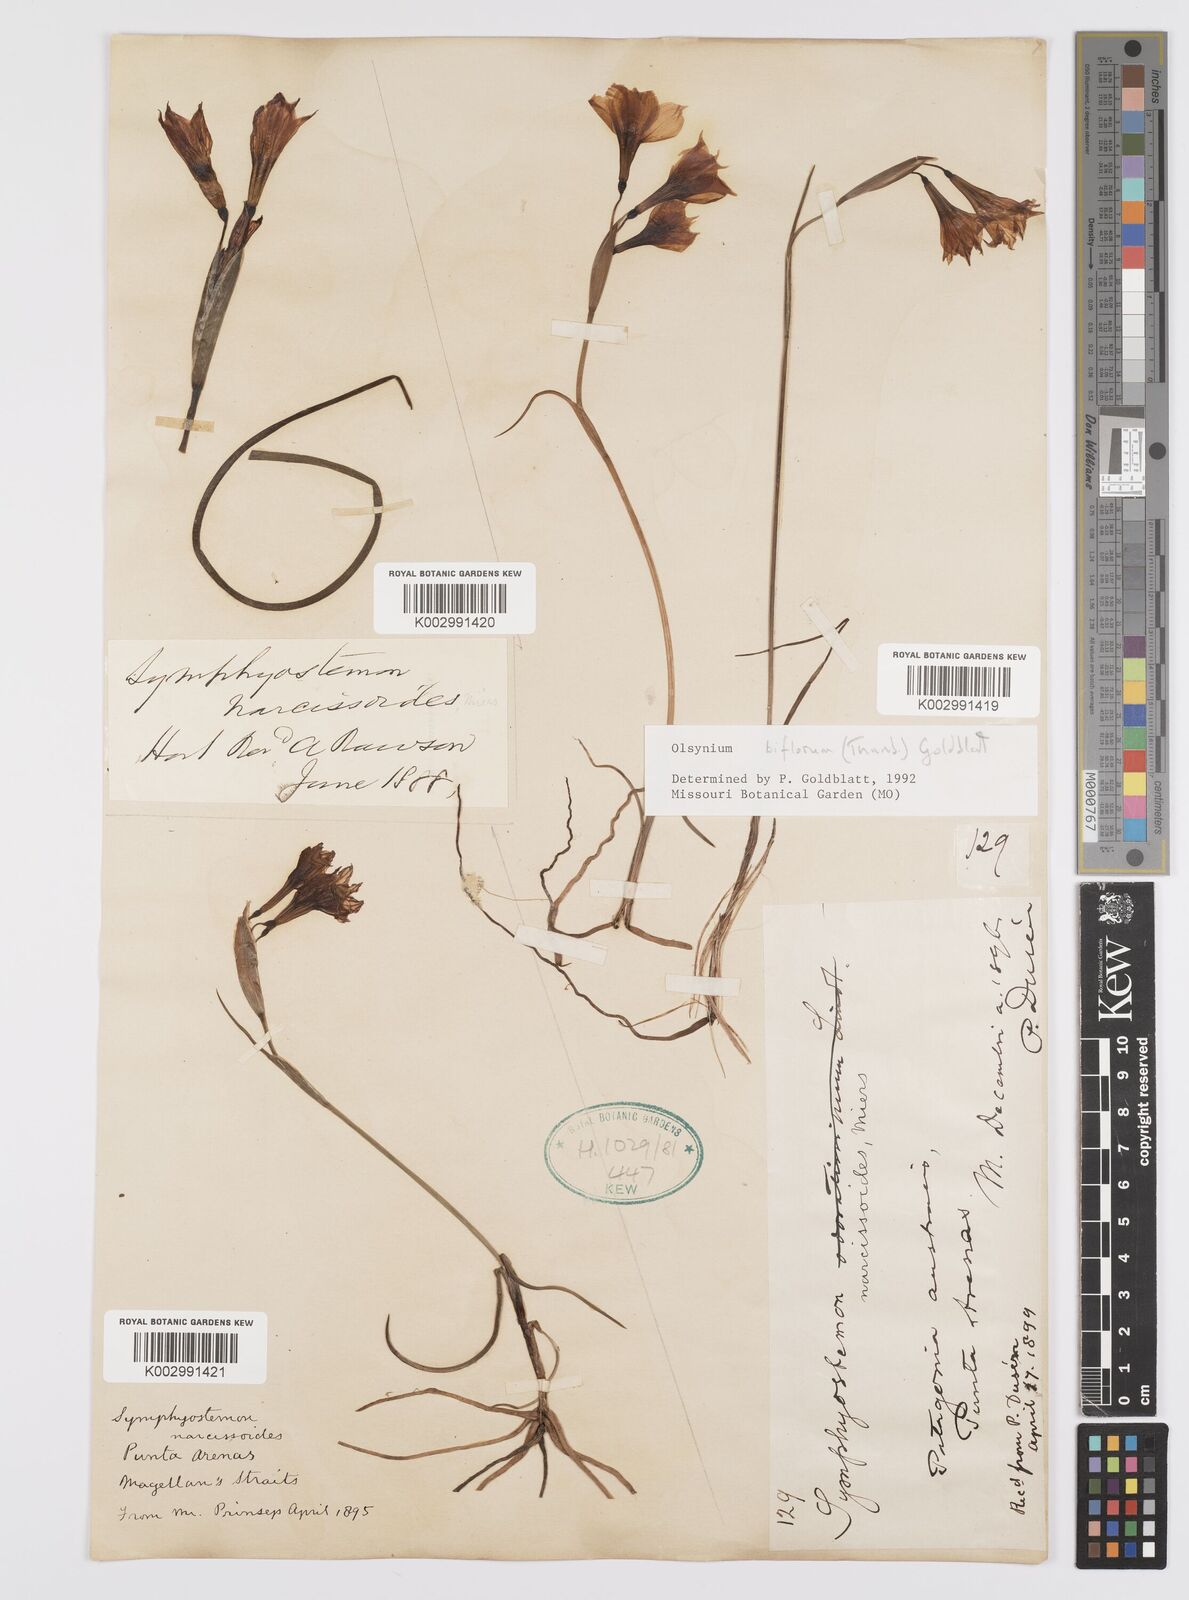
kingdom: Plantae
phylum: Tracheophyta
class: Liliopsida
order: Asparagales
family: Iridaceae
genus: Olsynium
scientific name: Olsynium biflorum
